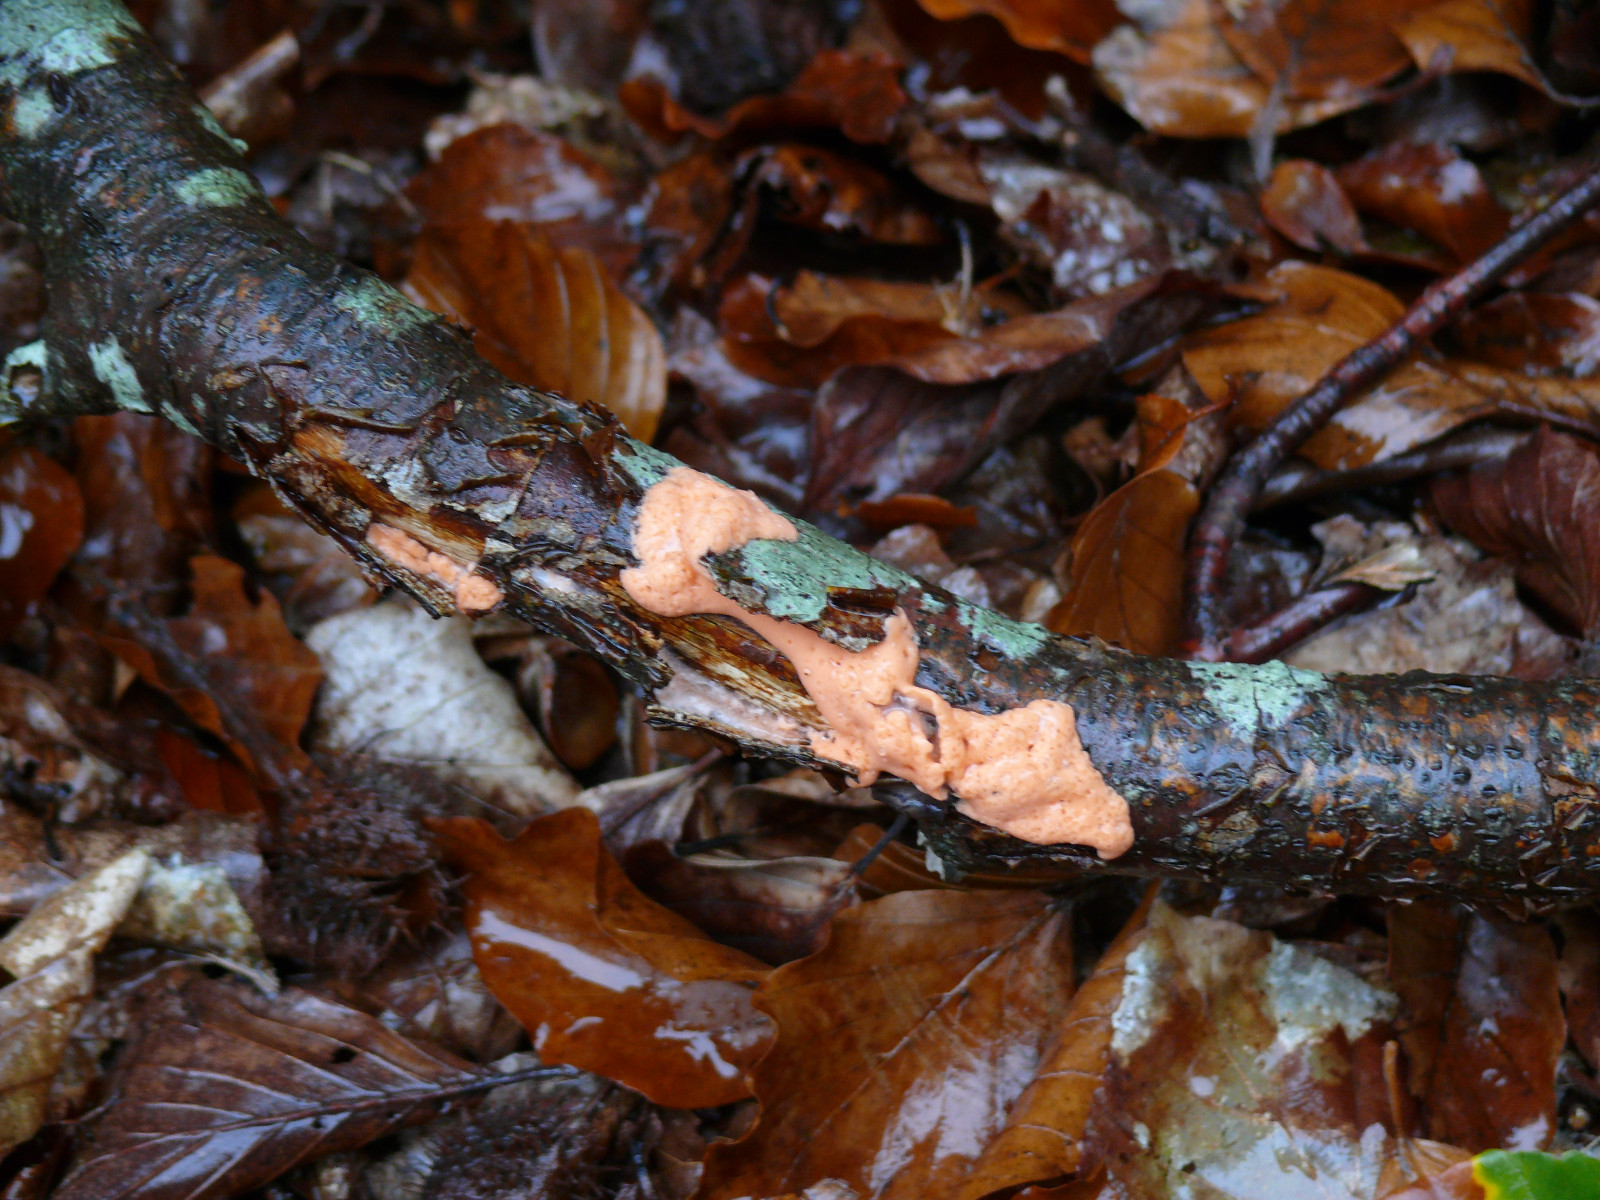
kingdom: Protozoa
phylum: Mycetozoa
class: Myxomycetes
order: Trichiales
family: Dictydiaethaliaceae
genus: Dictydiaethalium
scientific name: Dictydiaethalium plumbeum
